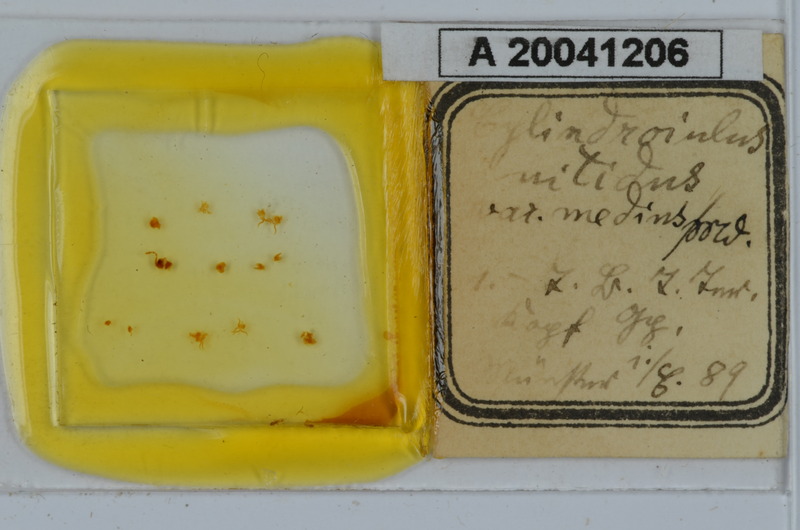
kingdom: Animalia
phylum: Arthropoda
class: Diplopoda
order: Julida
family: Julidae
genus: Allajulus
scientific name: Allajulus nitidus
